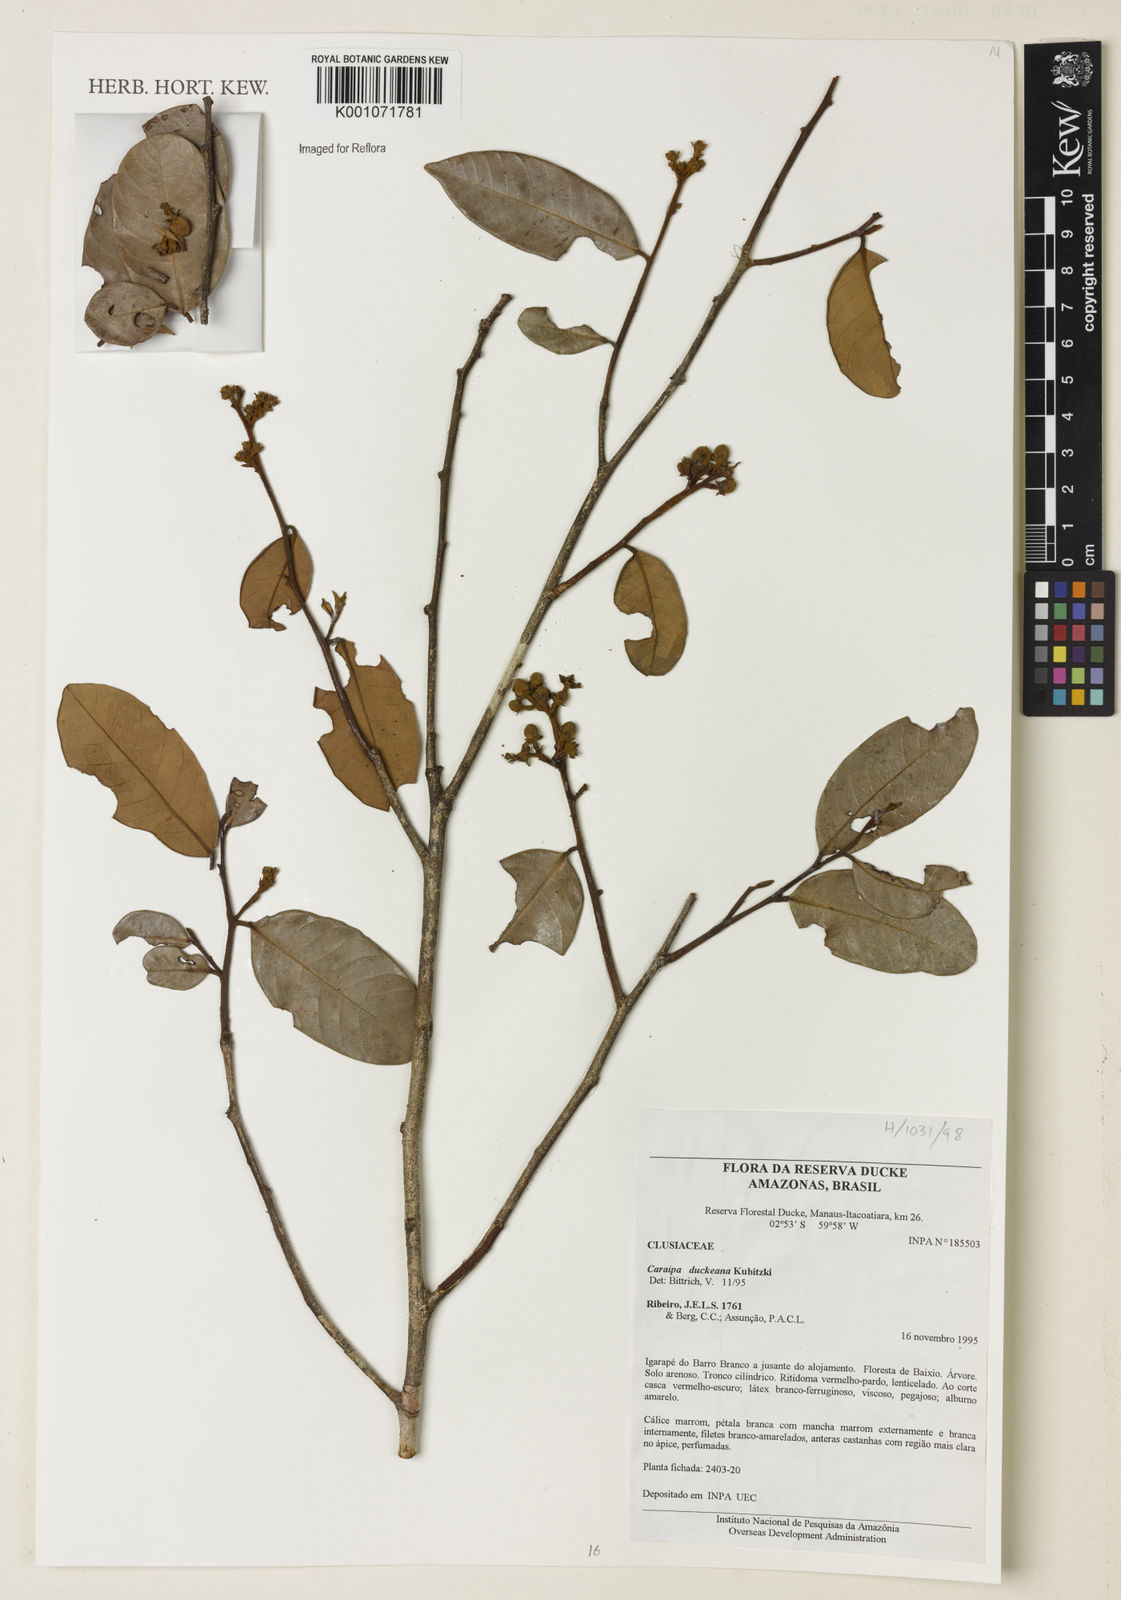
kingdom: Plantae
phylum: Tracheophyta
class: Magnoliopsida
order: Malpighiales
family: Calophyllaceae
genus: Caraipa
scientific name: Caraipa duckeana
